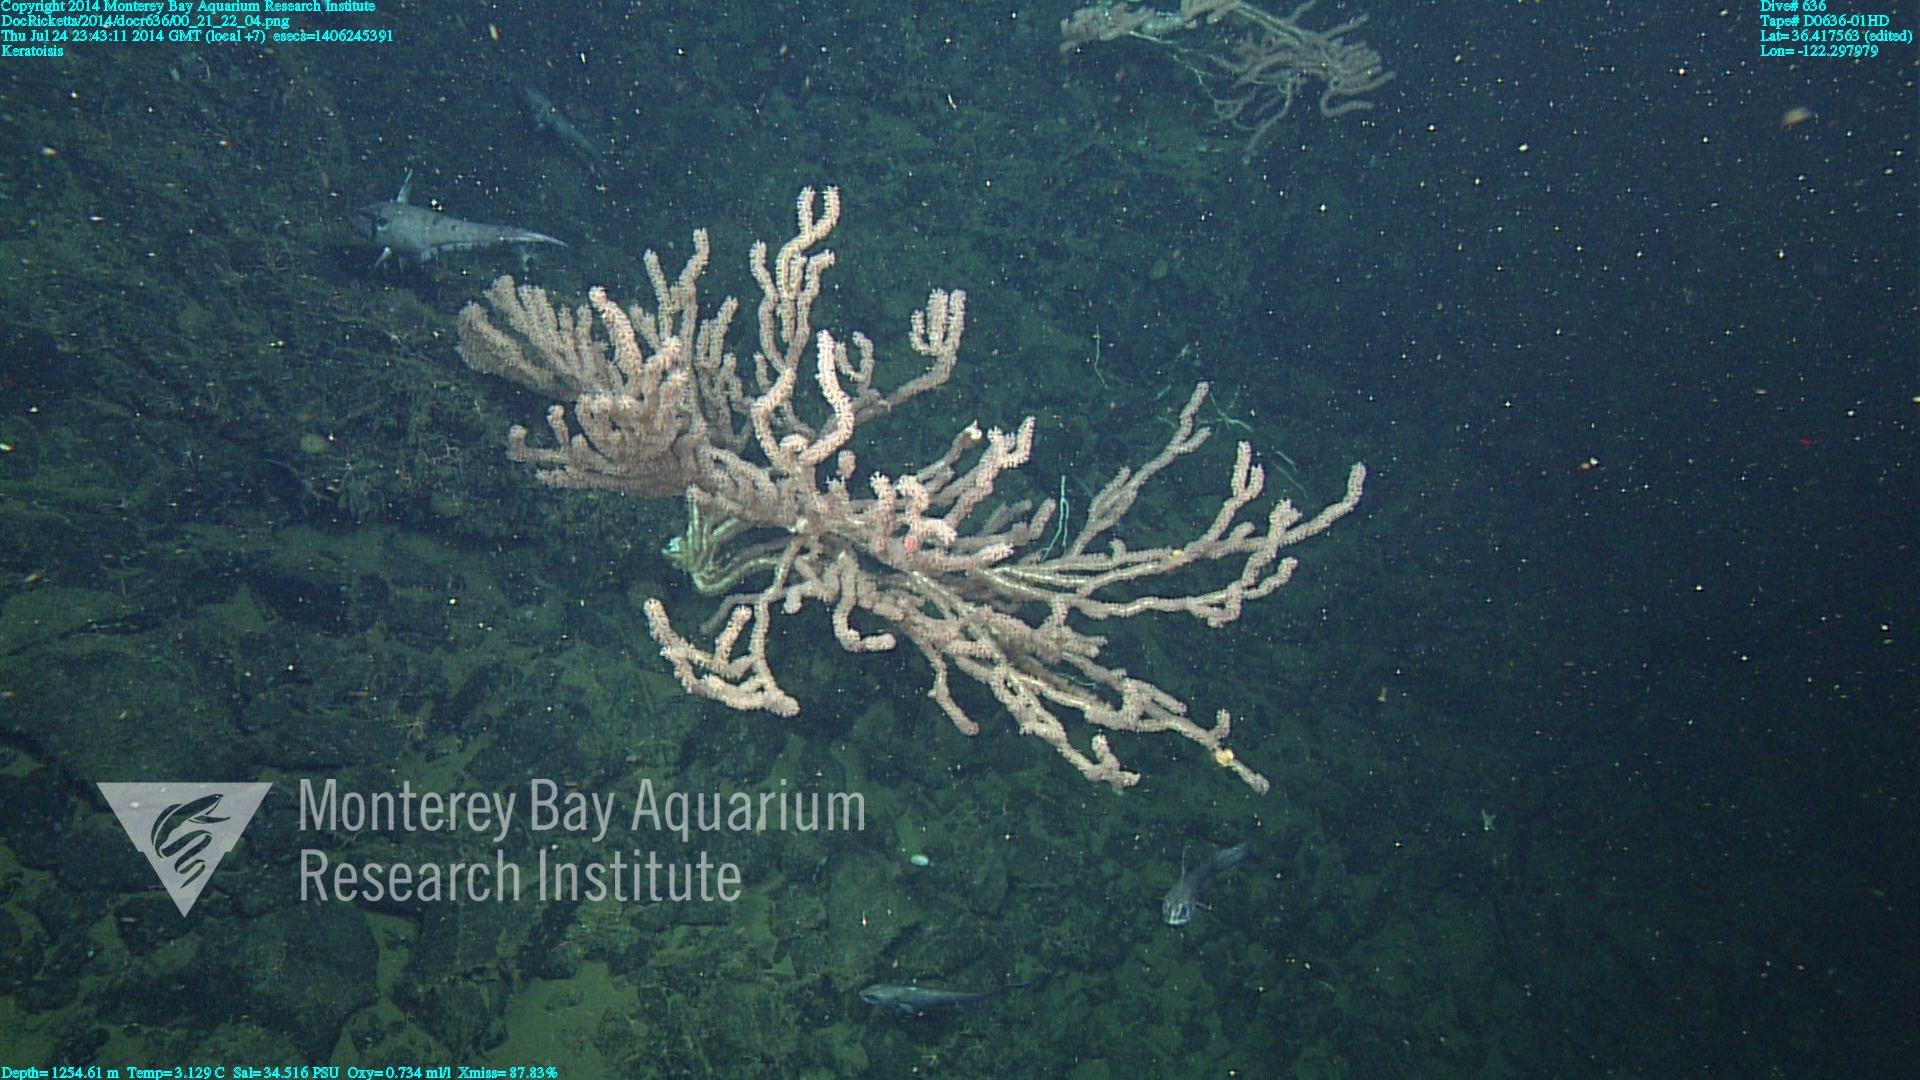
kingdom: Animalia
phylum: Cnidaria
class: Anthozoa
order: Scleralcyonacea
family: Keratoisididae
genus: Keratoisis
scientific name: Keratoisis
